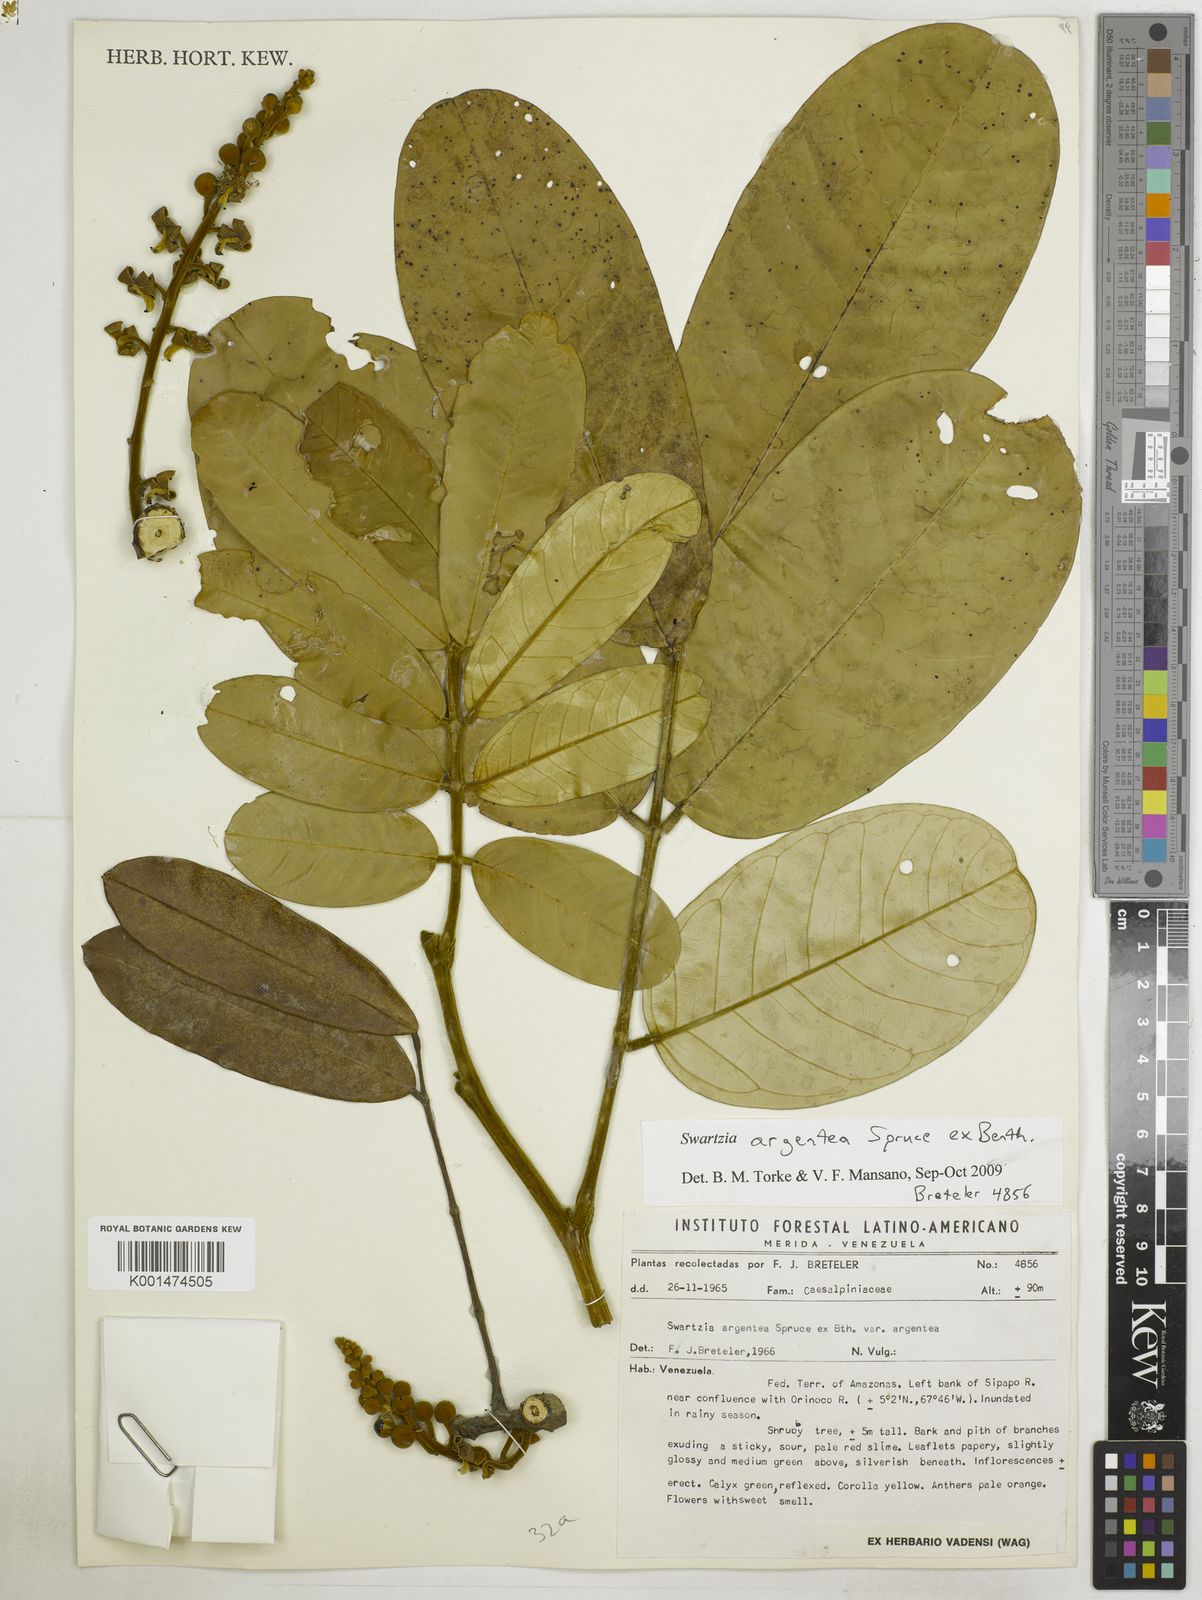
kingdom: Plantae
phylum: Tracheophyta
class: Magnoliopsida
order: Fabales
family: Fabaceae
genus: Swartzia
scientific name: Swartzia argentea
